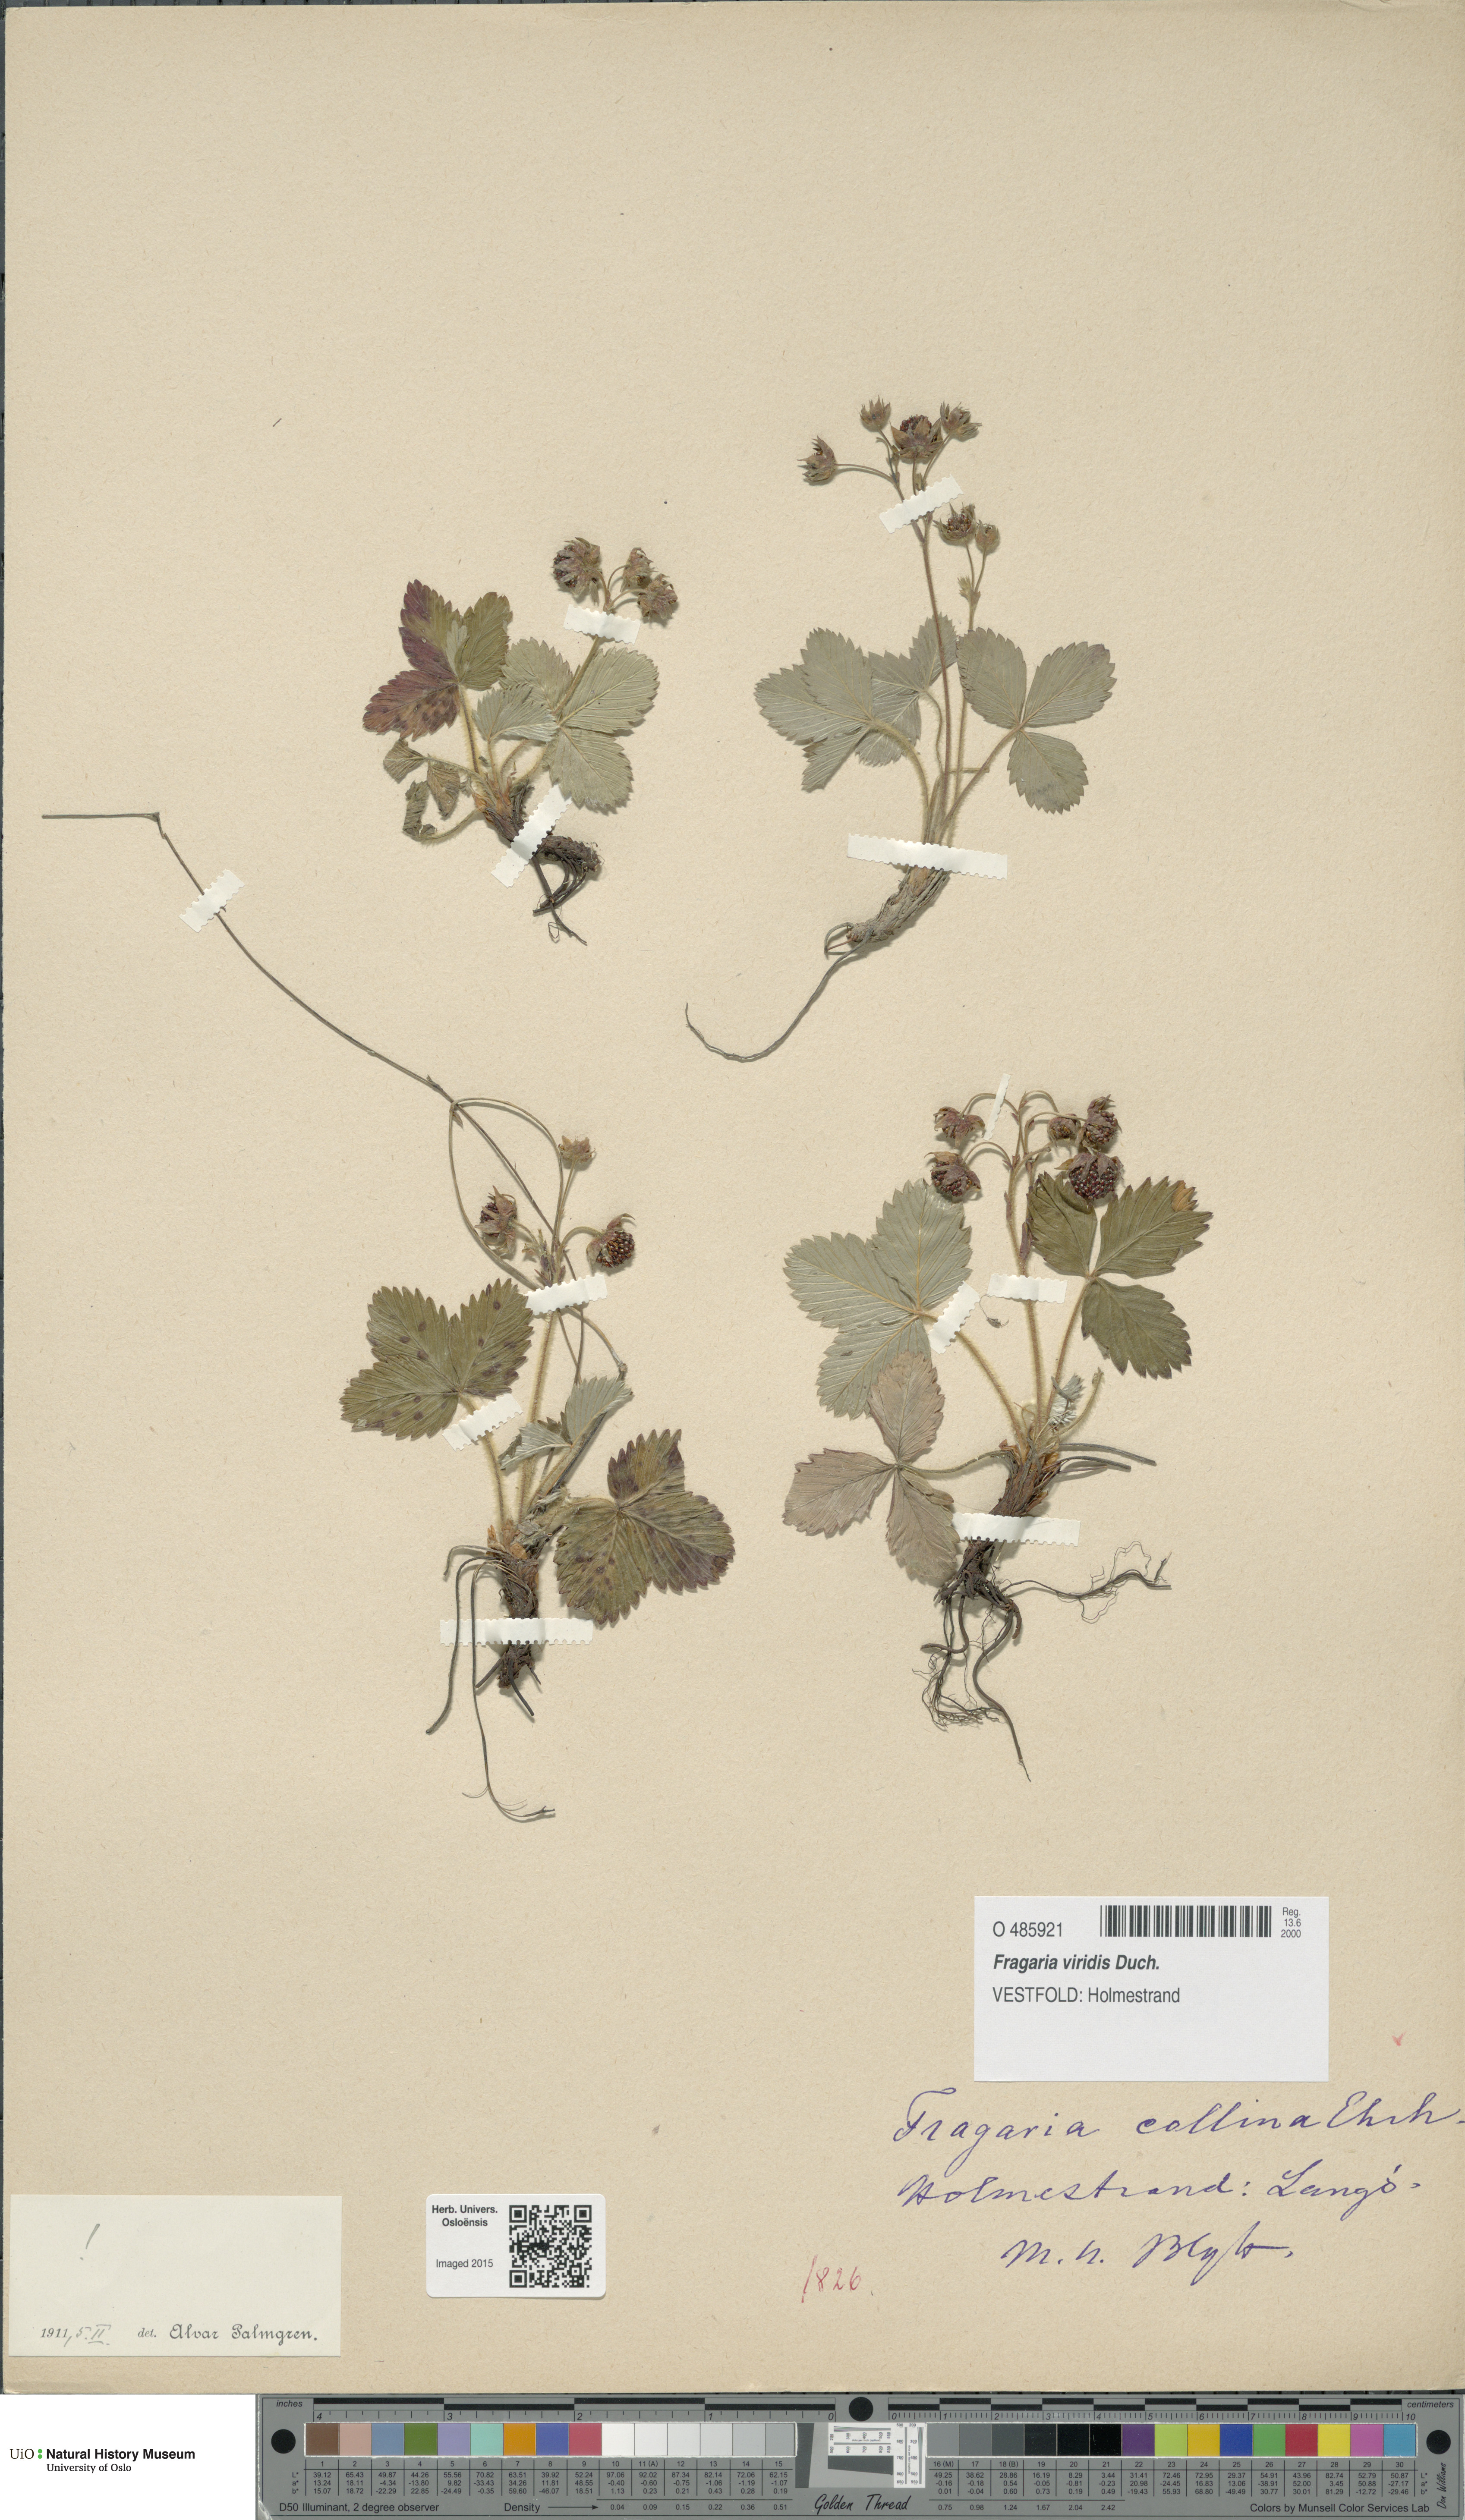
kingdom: Plantae
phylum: Tracheophyta
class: Magnoliopsida
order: Rosales
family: Rosaceae
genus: Fragaria
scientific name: Fragaria viridis
